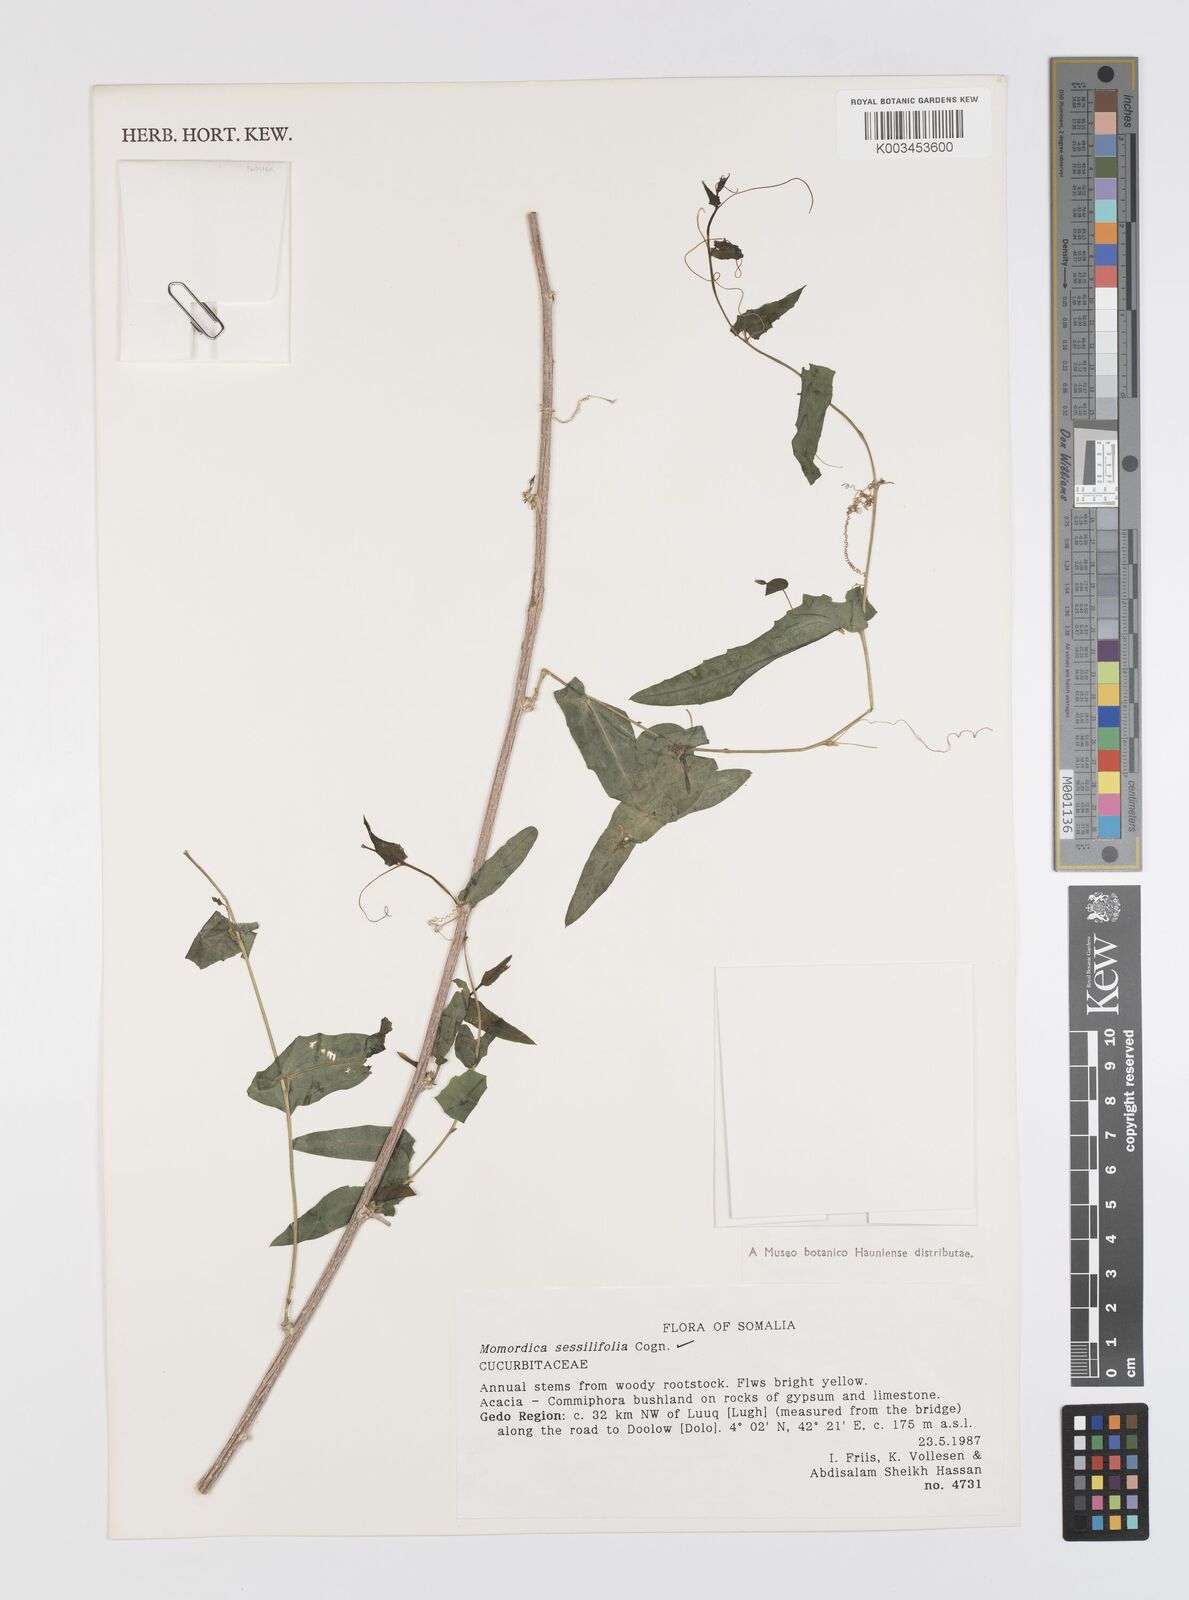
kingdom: Plantae
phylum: Tracheophyta
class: Magnoliopsida
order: Cucurbitales
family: Cucurbitaceae
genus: Momordica
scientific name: Momordica sessilifolia
